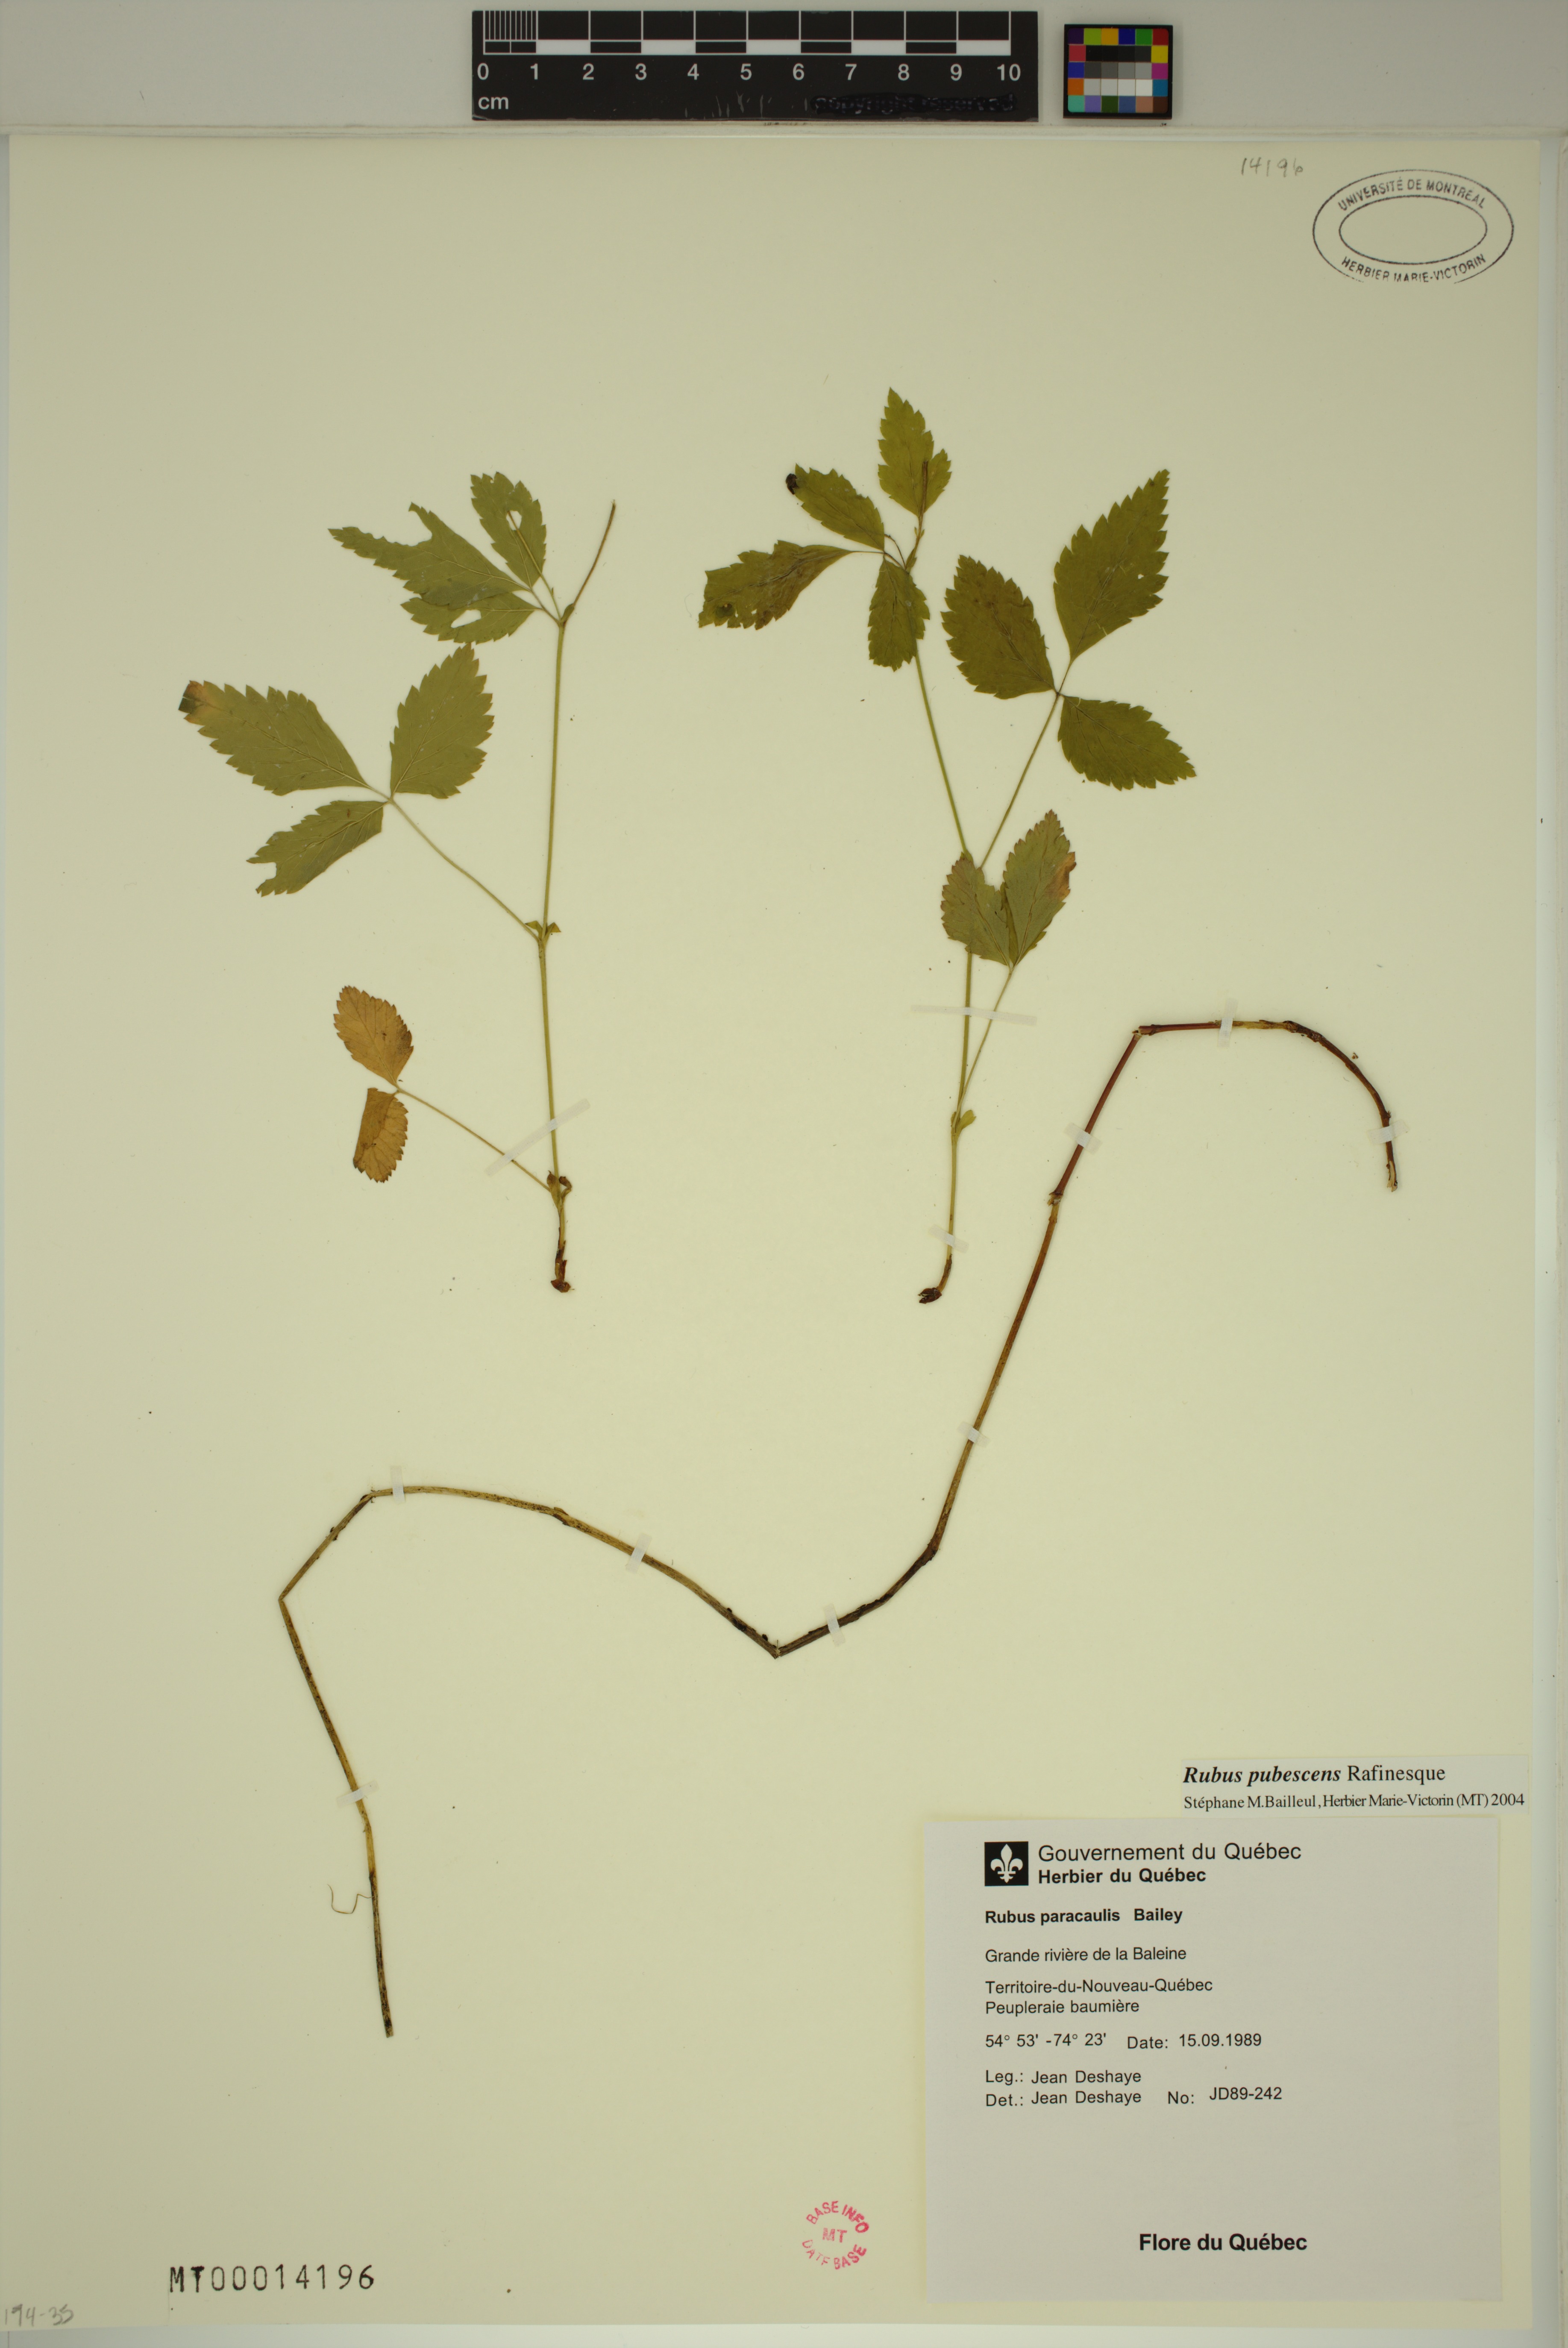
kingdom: Plantae
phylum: Tracheophyta
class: Magnoliopsida
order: Rosales
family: Rosaceae
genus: Rubus
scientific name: Rubus pubescens
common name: Dwarf raspberry
